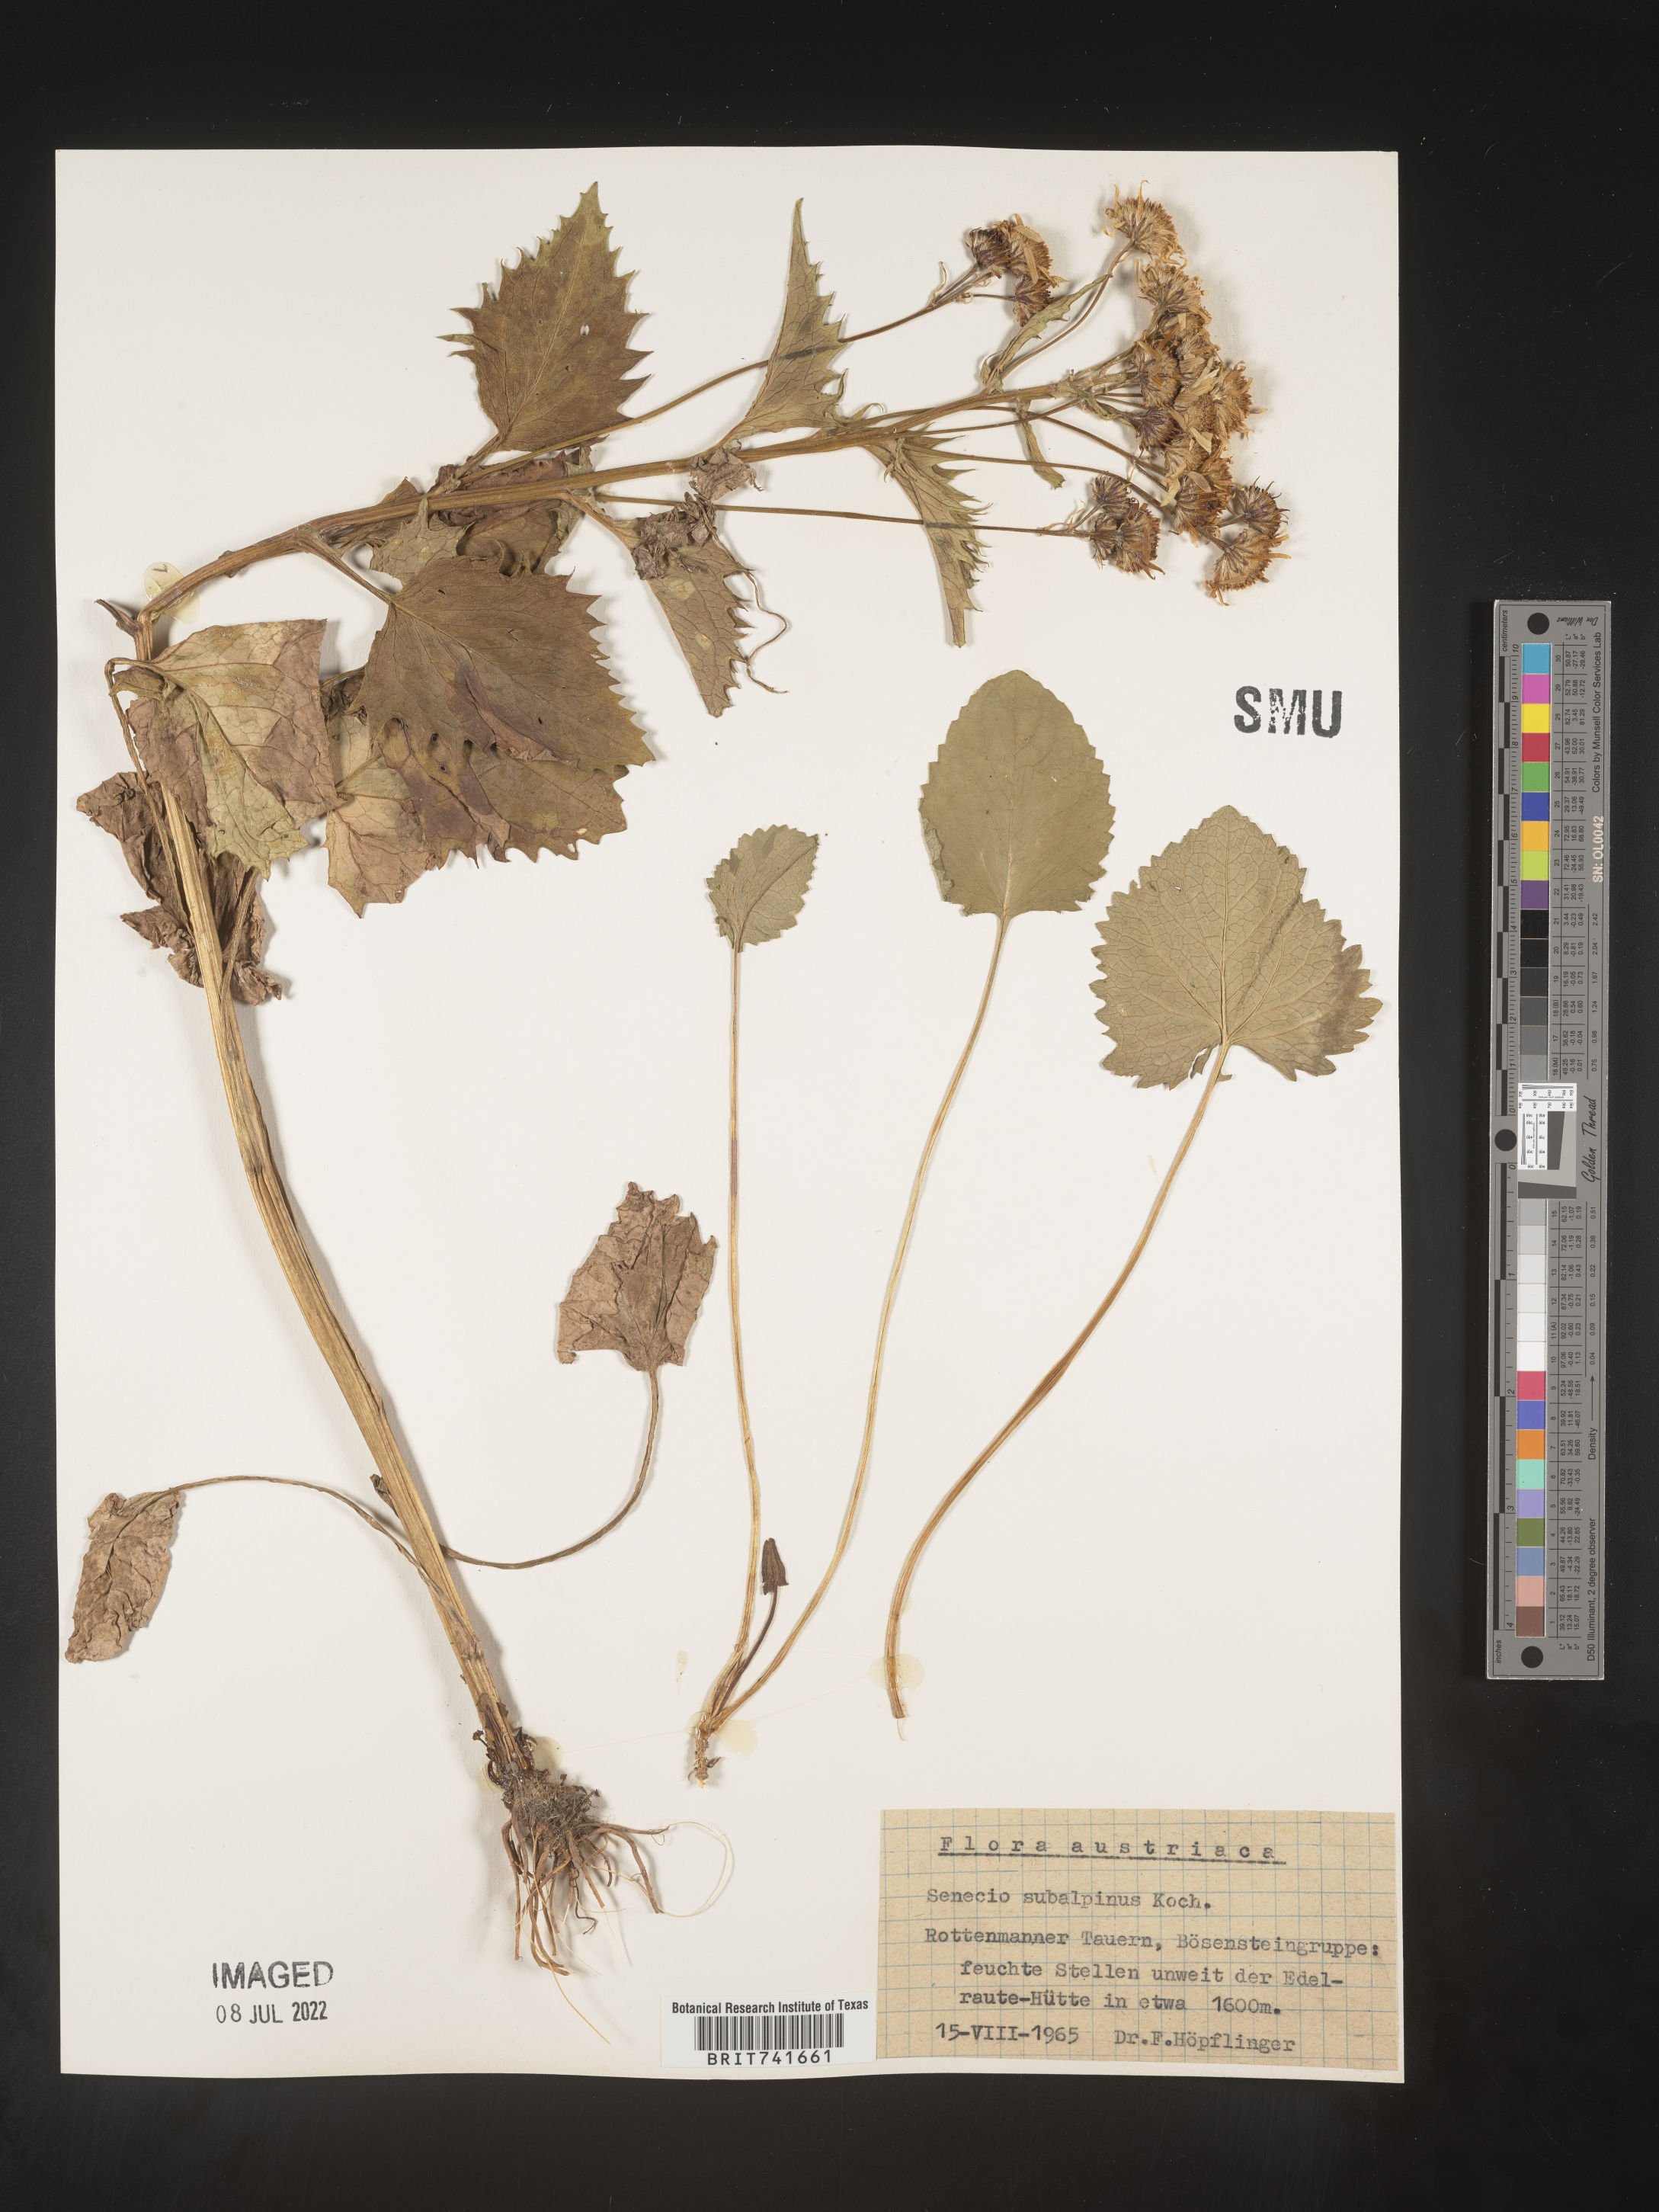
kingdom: Plantae
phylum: Tracheophyta
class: Magnoliopsida
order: Asterales
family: Asteraceae
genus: Senecio
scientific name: Senecio
